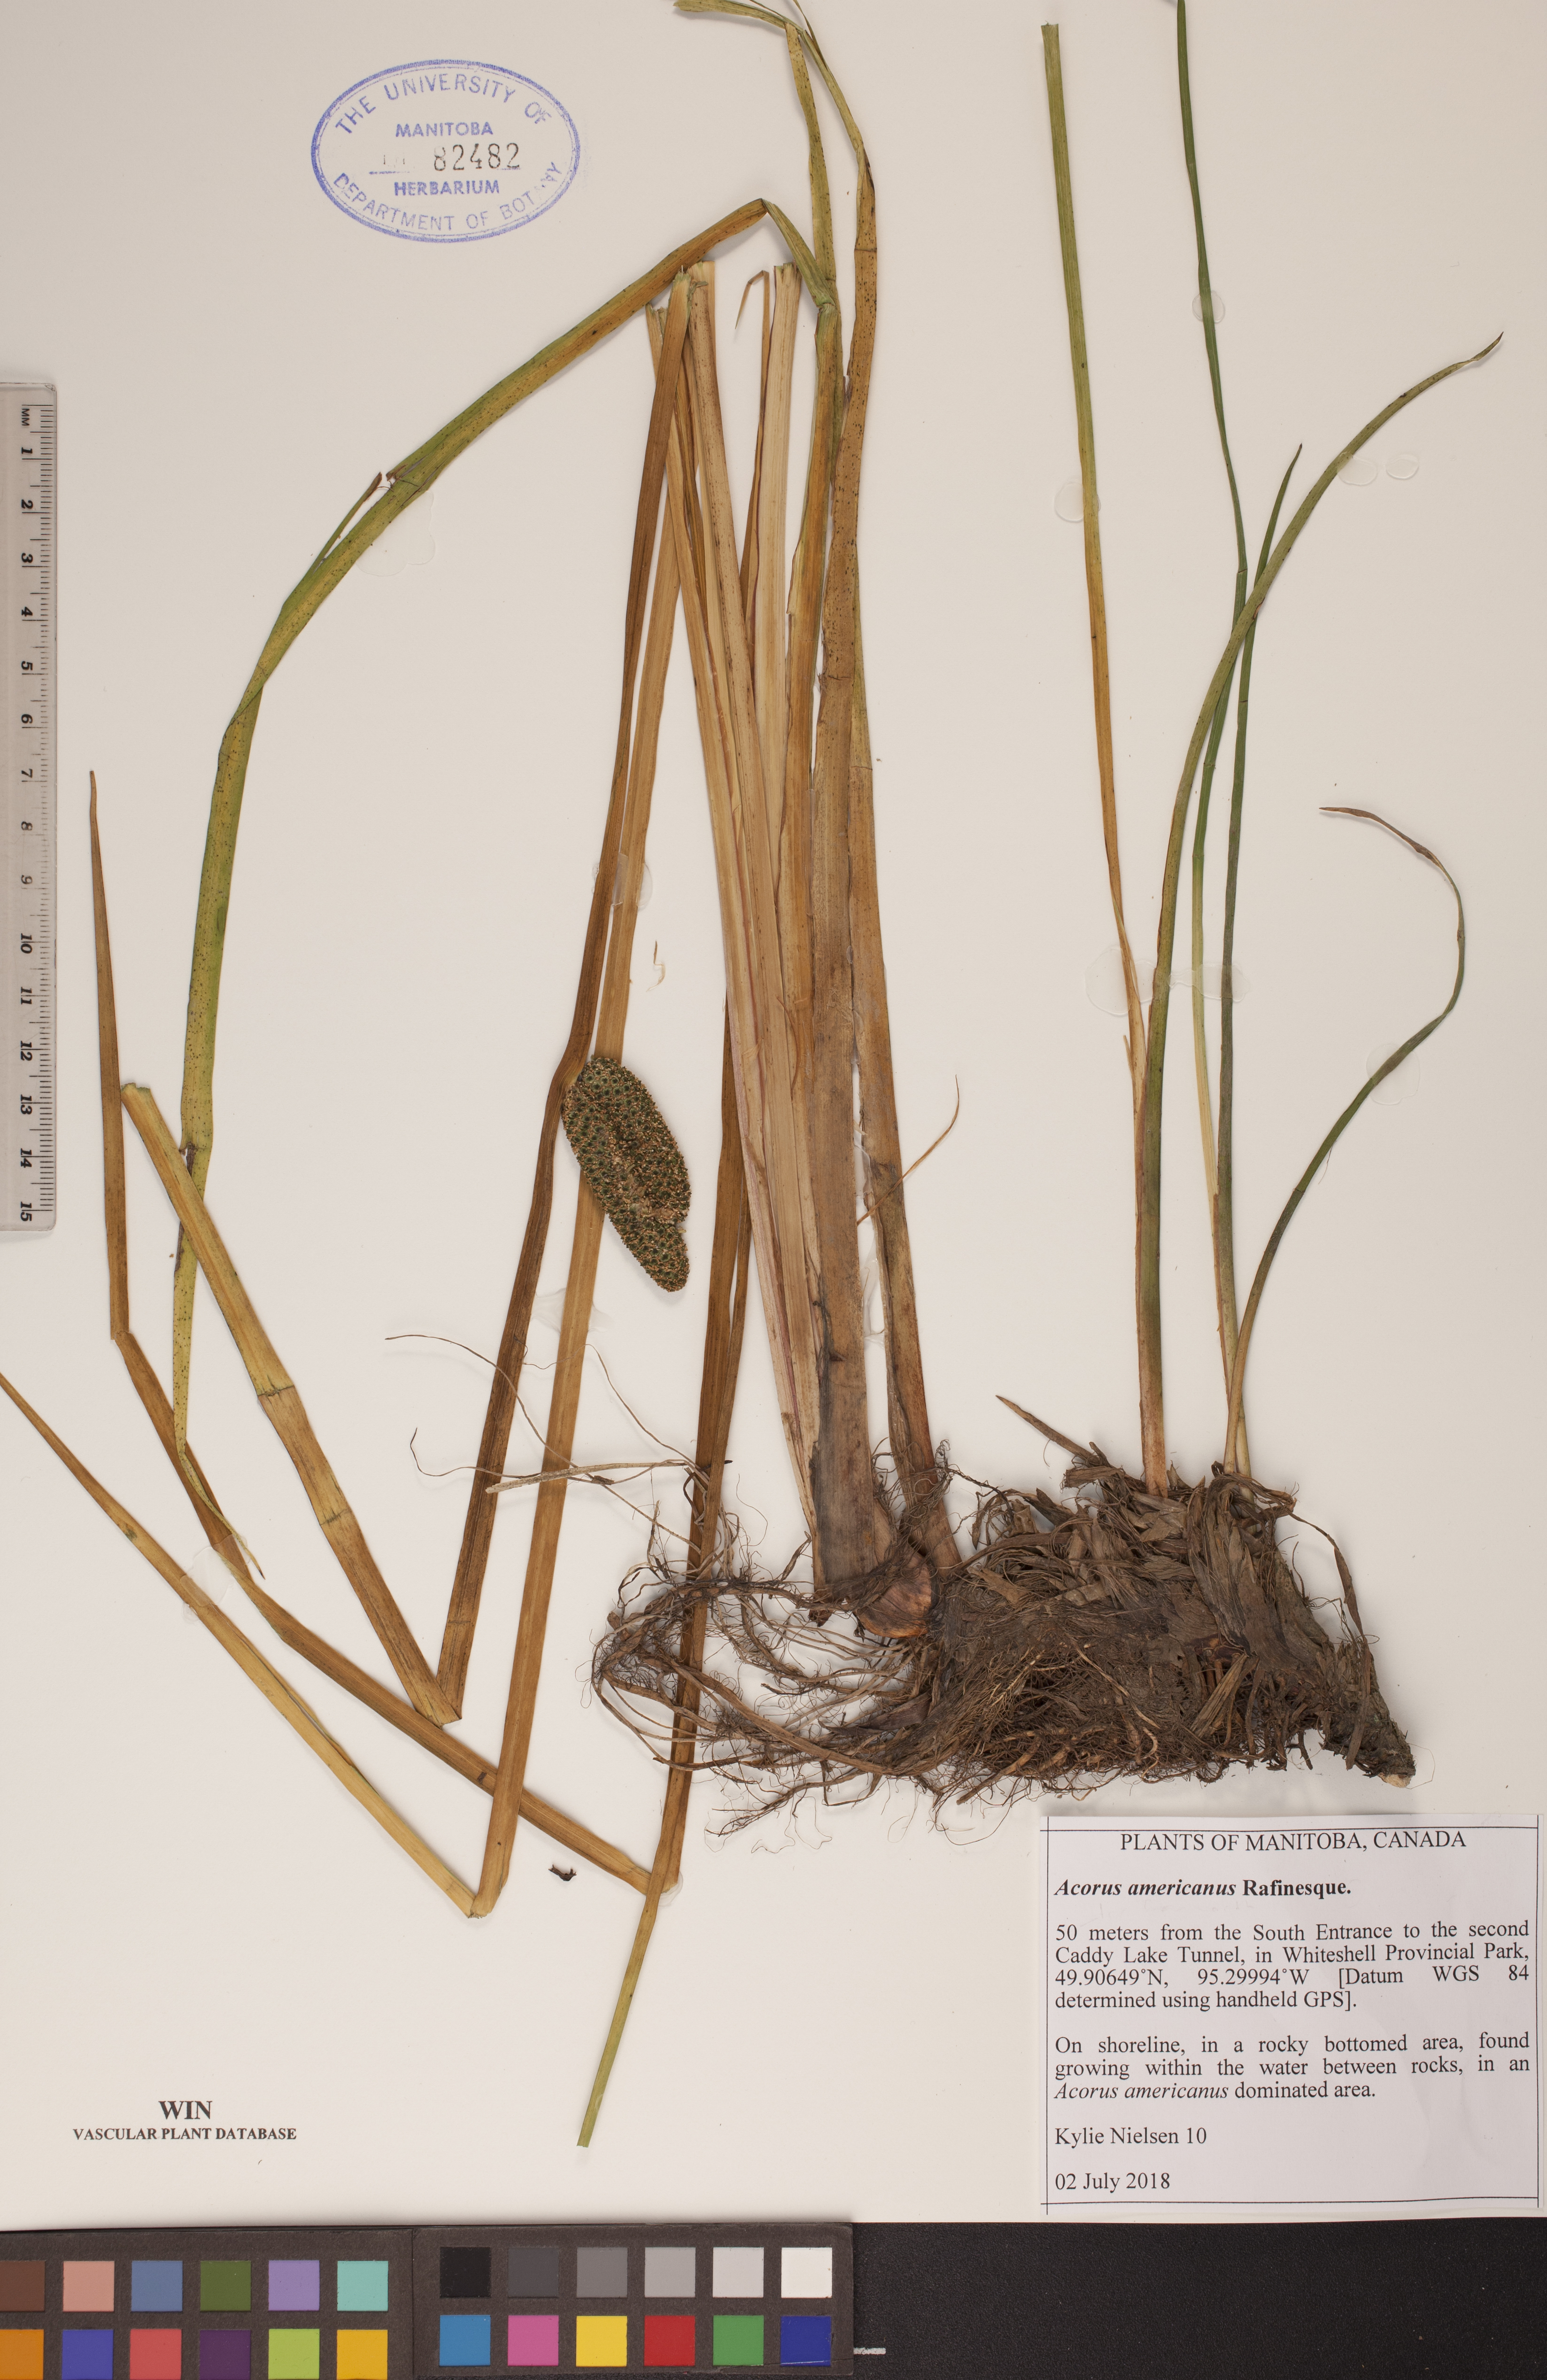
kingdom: Plantae
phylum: Tracheophyta
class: Liliopsida
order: Acorales
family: Acoraceae
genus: Acorus
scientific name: Acorus calamus
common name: Sweet-flag
